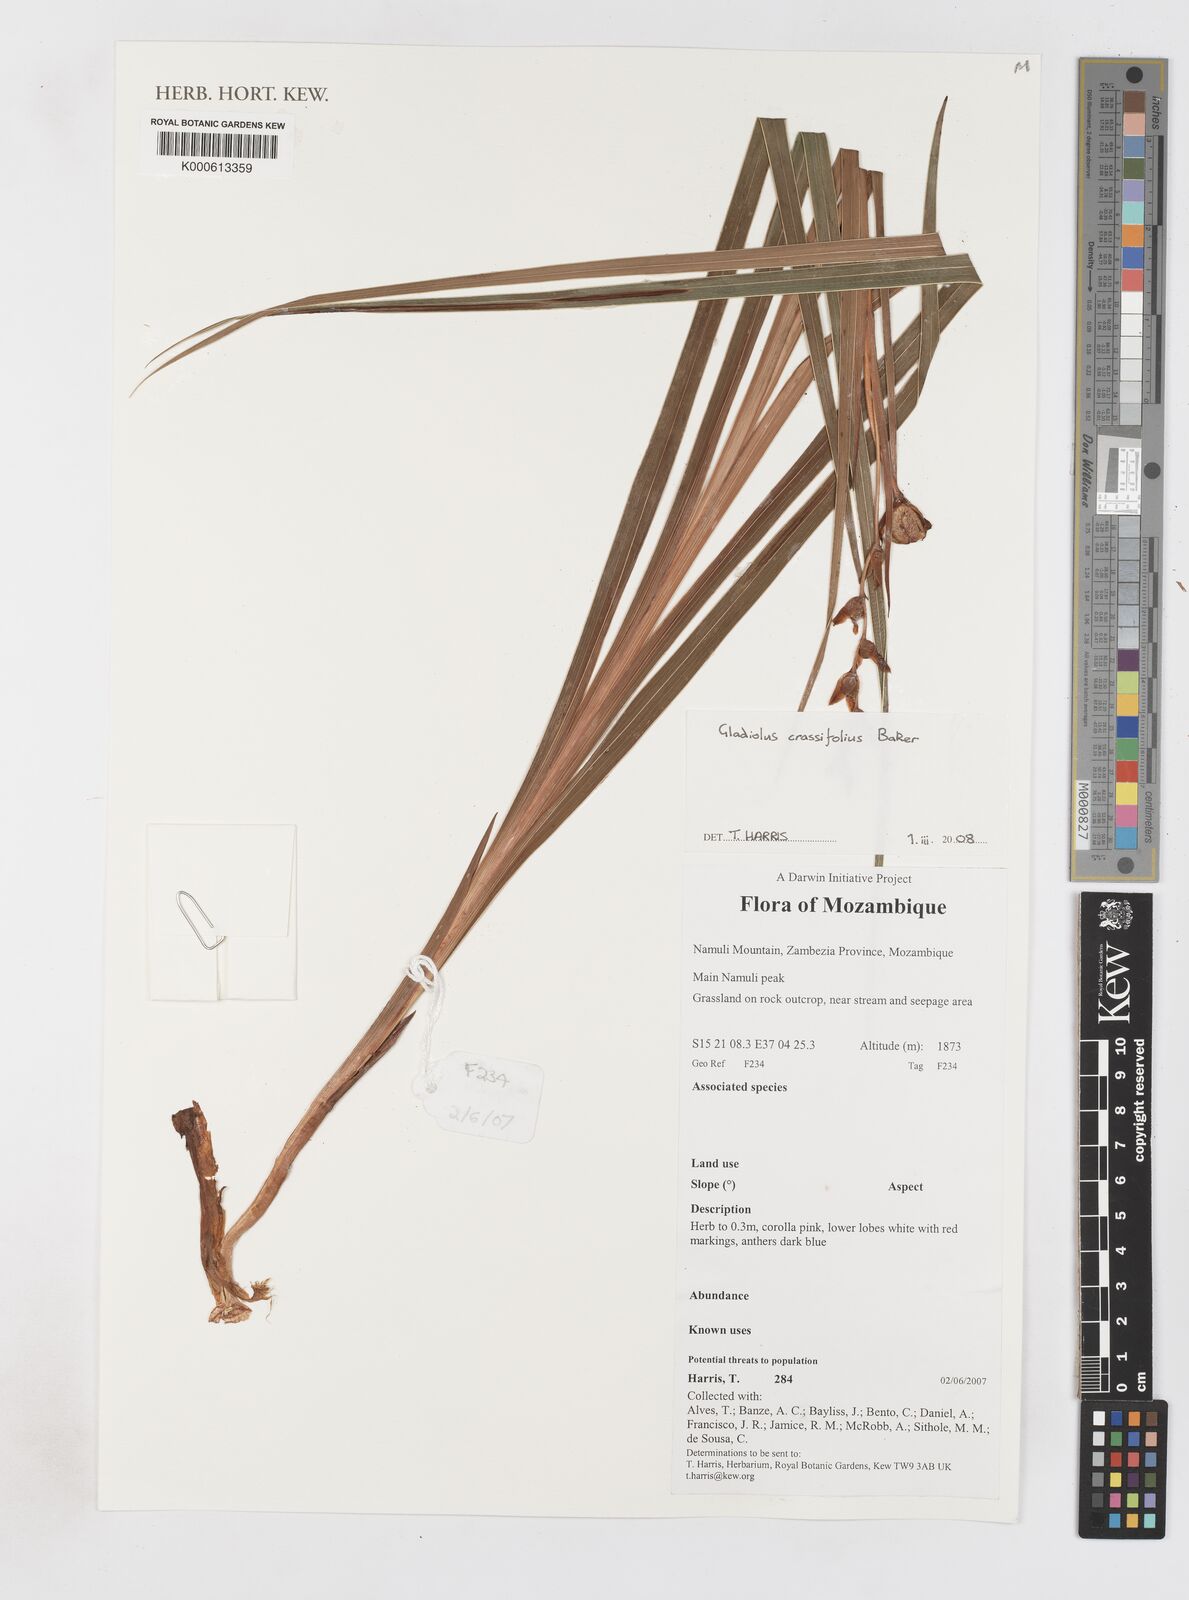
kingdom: Plantae
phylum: Tracheophyta
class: Liliopsida
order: Asparagales
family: Iridaceae
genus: Gladiolus
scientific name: Gladiolus crassifolius
